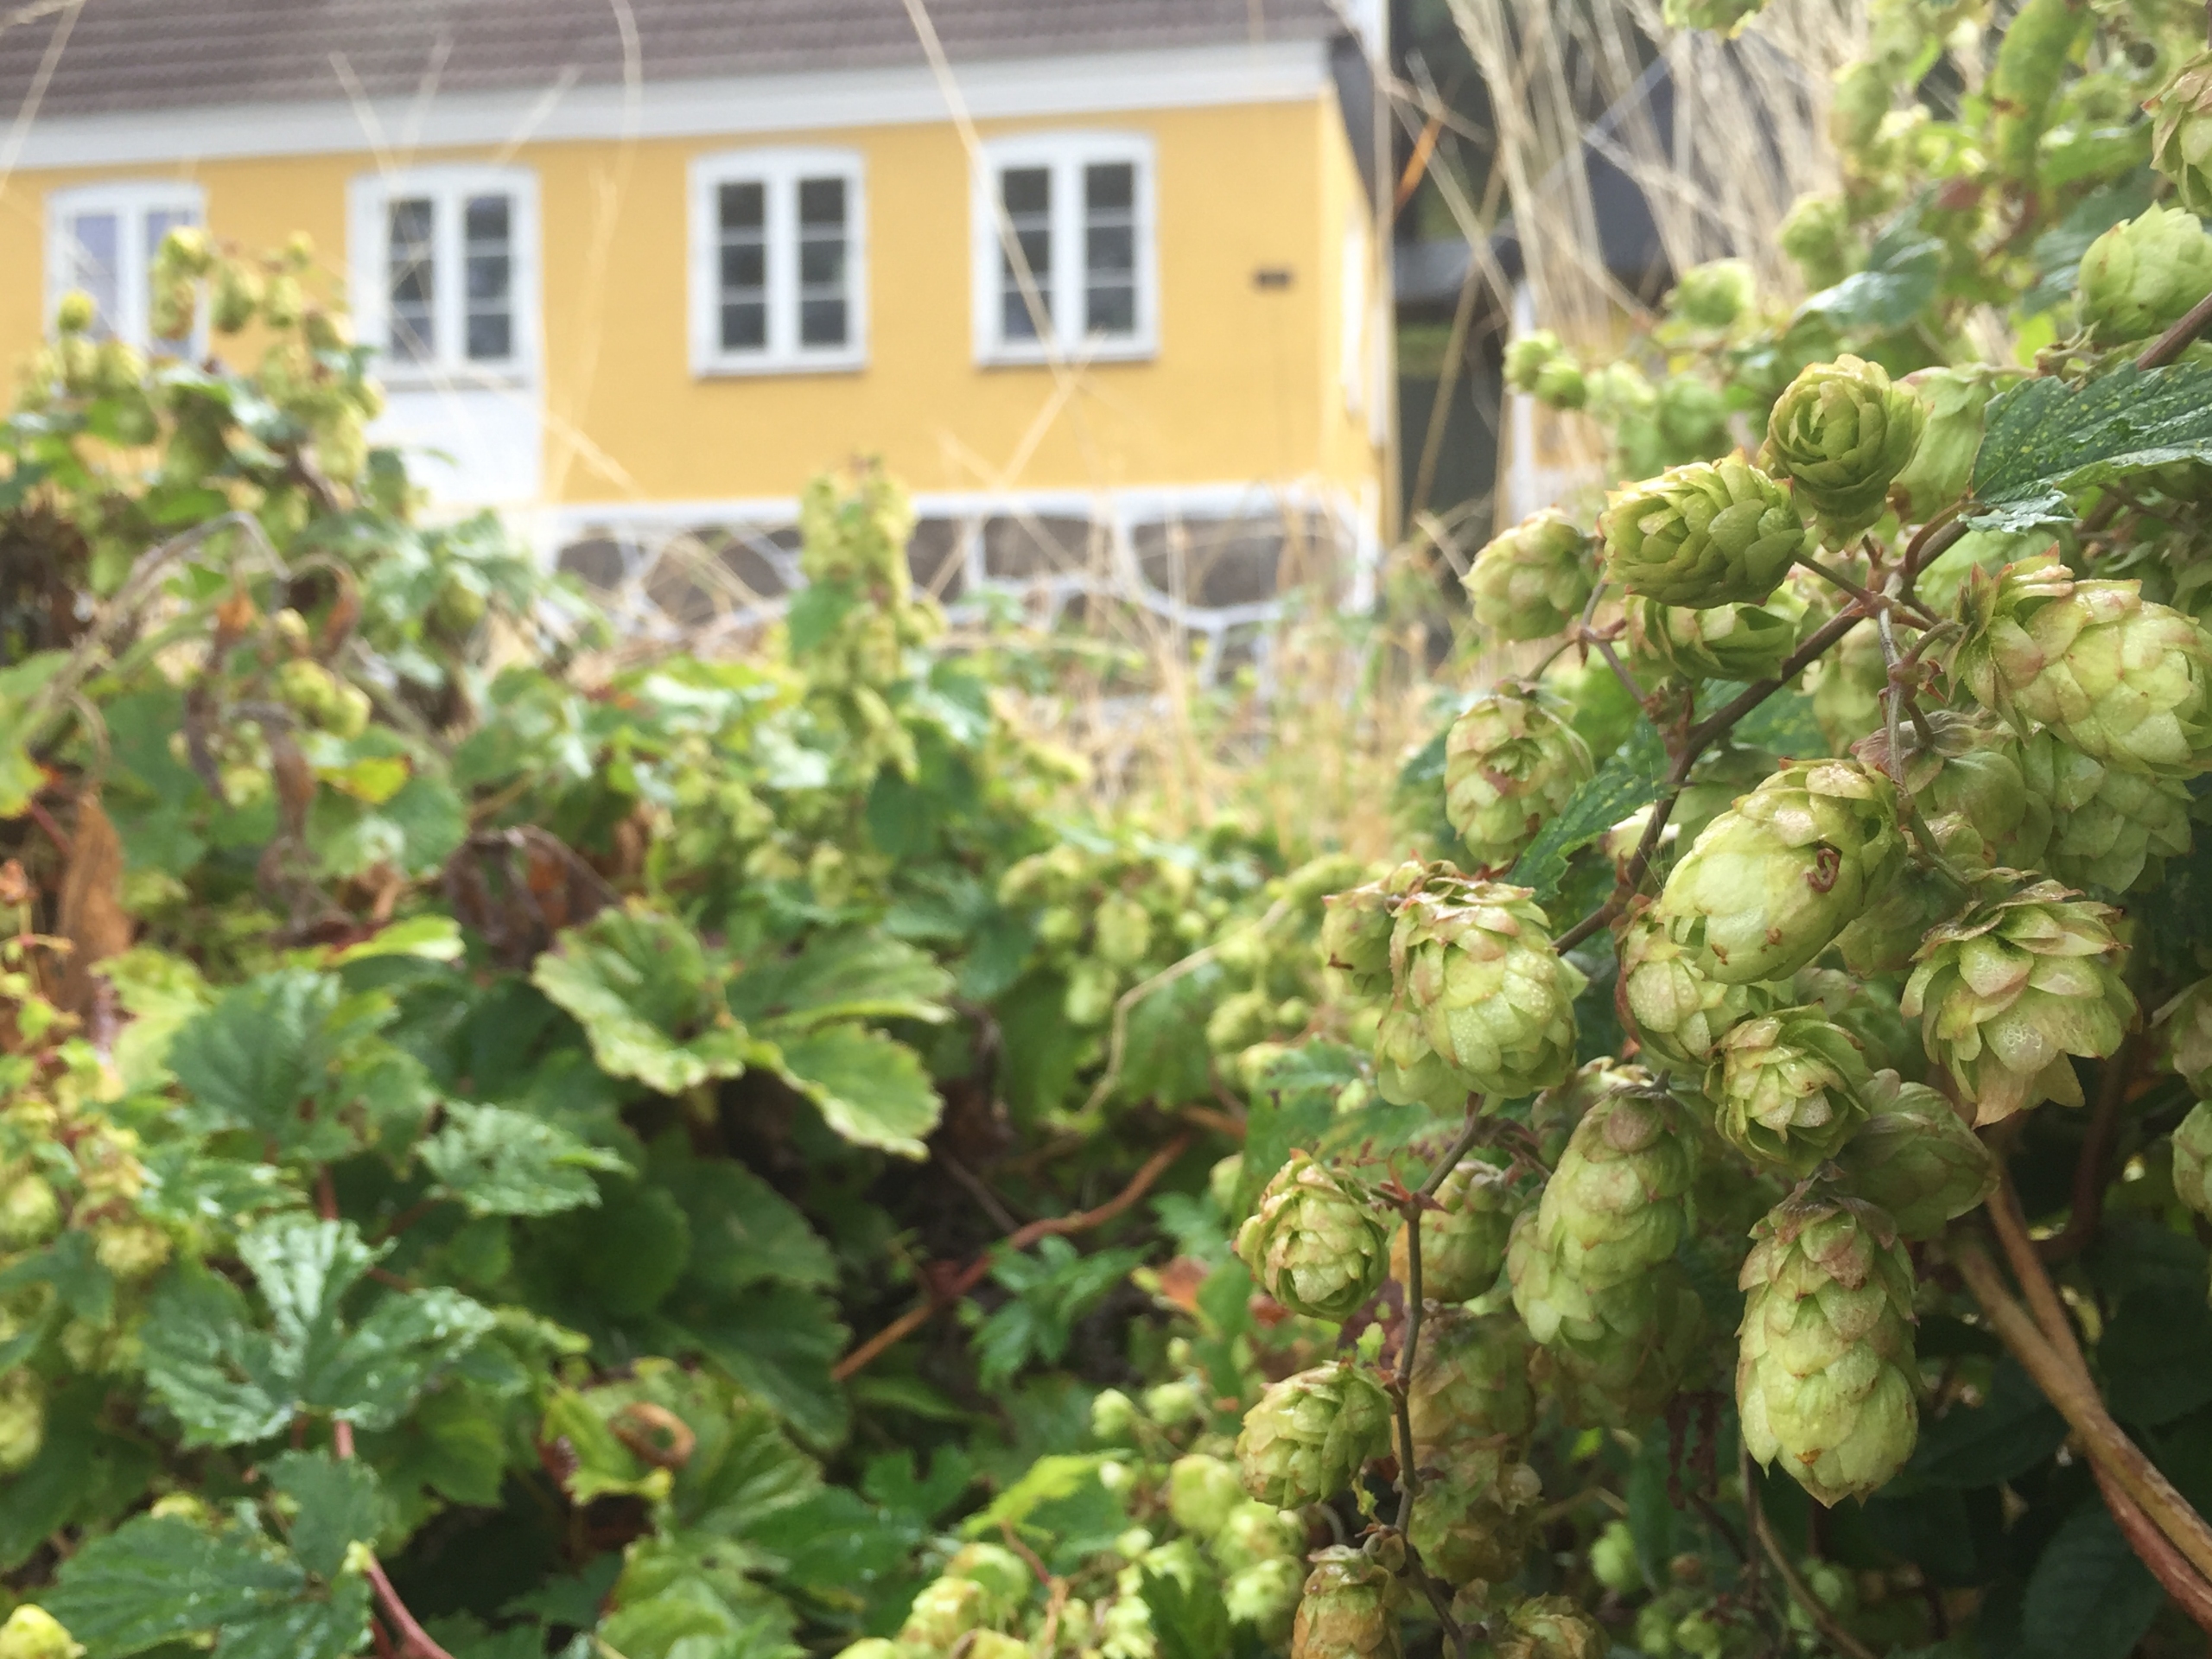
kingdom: Plantae
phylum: Tracheophyta
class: Magnoliopsida
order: Rosales
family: Cannabaceae
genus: Humulus
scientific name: Humulus lupulus
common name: Humle
